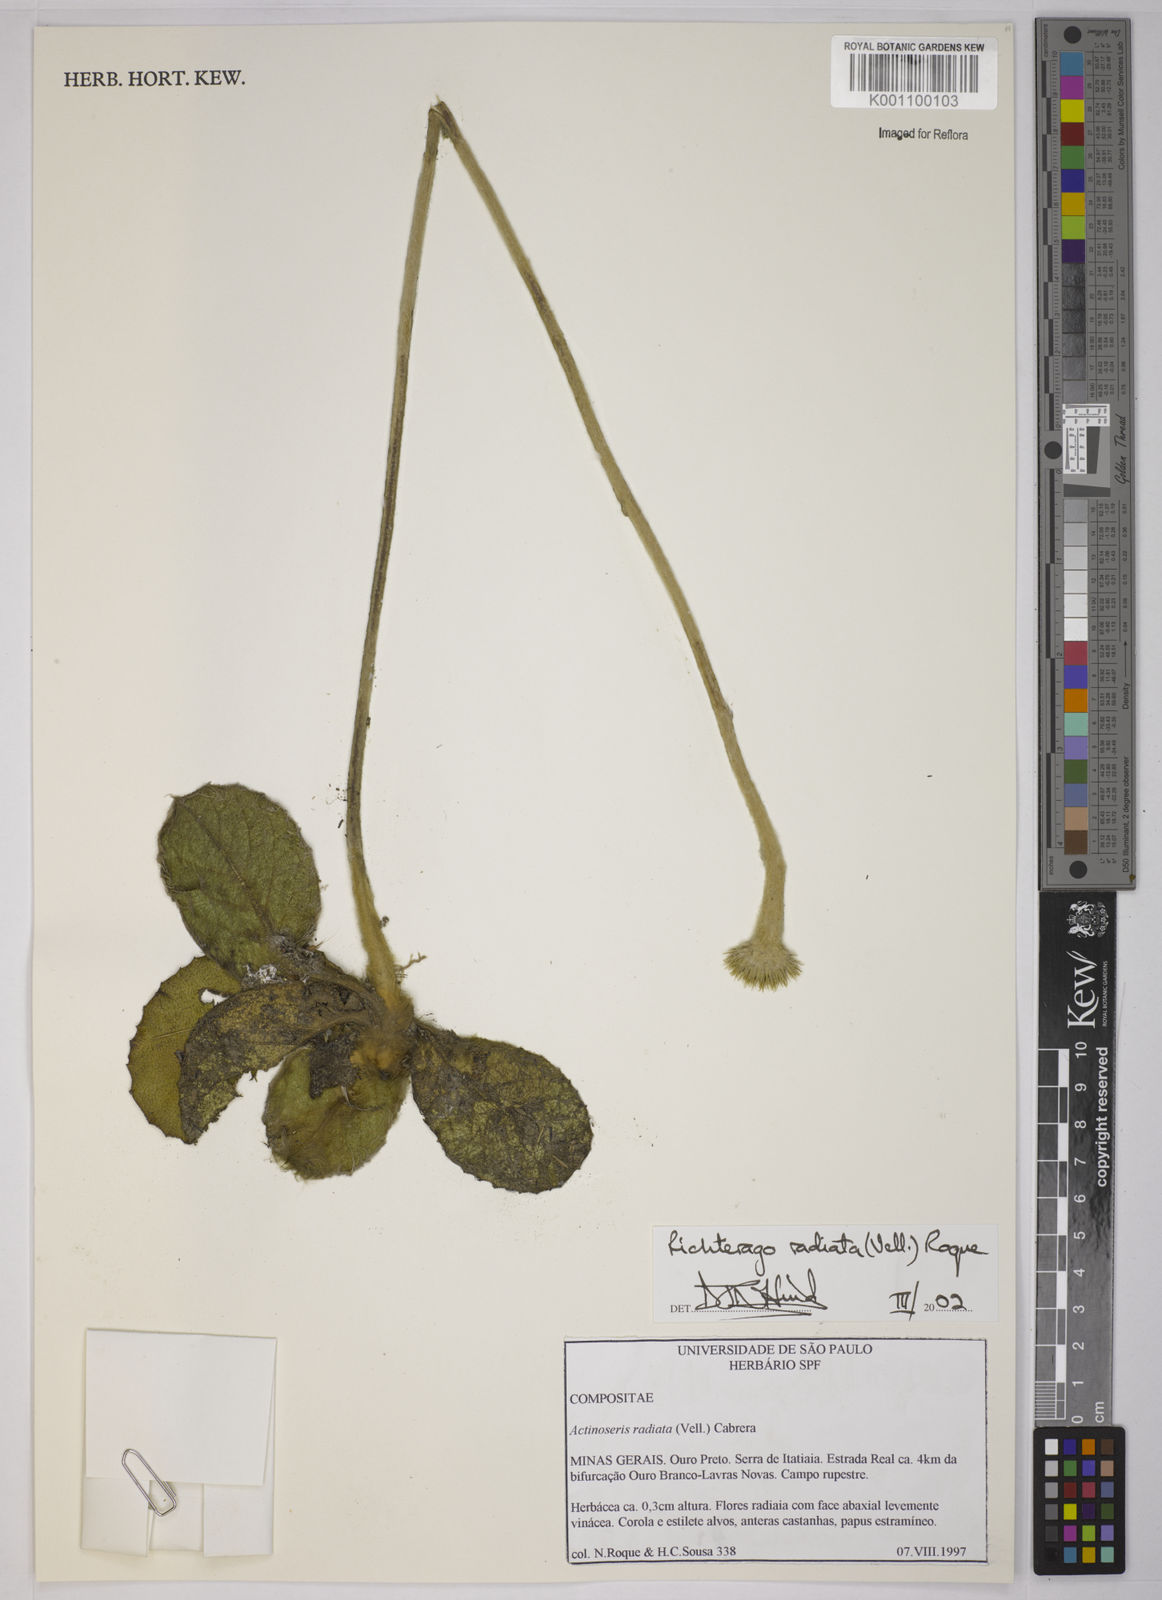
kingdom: Plantae
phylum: Tracheophyta
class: Magnoliopsida
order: Asterales
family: Asteraceae
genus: Richterago
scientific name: Richterago radiata
